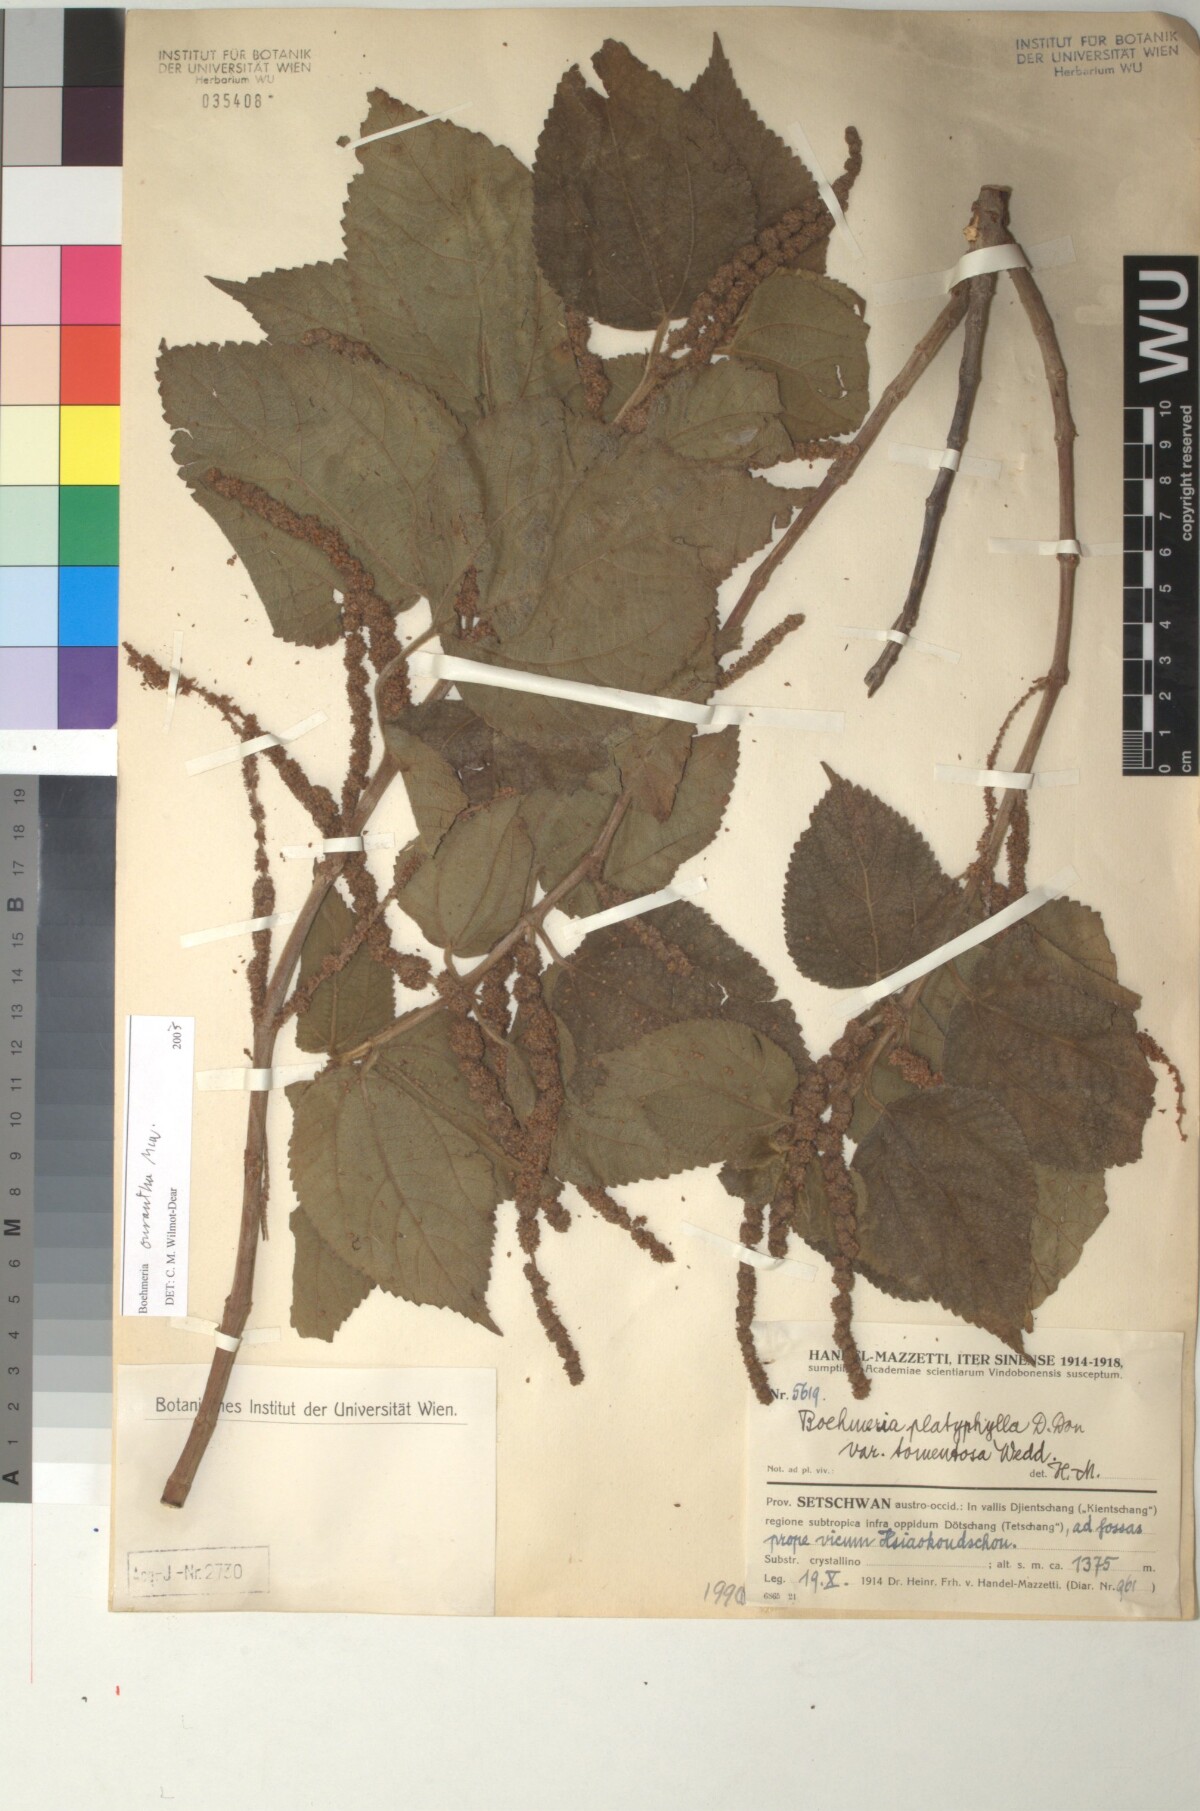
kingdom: Plantae
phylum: Tracheophyta
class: Magnoliopsida
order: Rosales
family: Urticaceae
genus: Boehmeria
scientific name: Boehmeria ourantha
